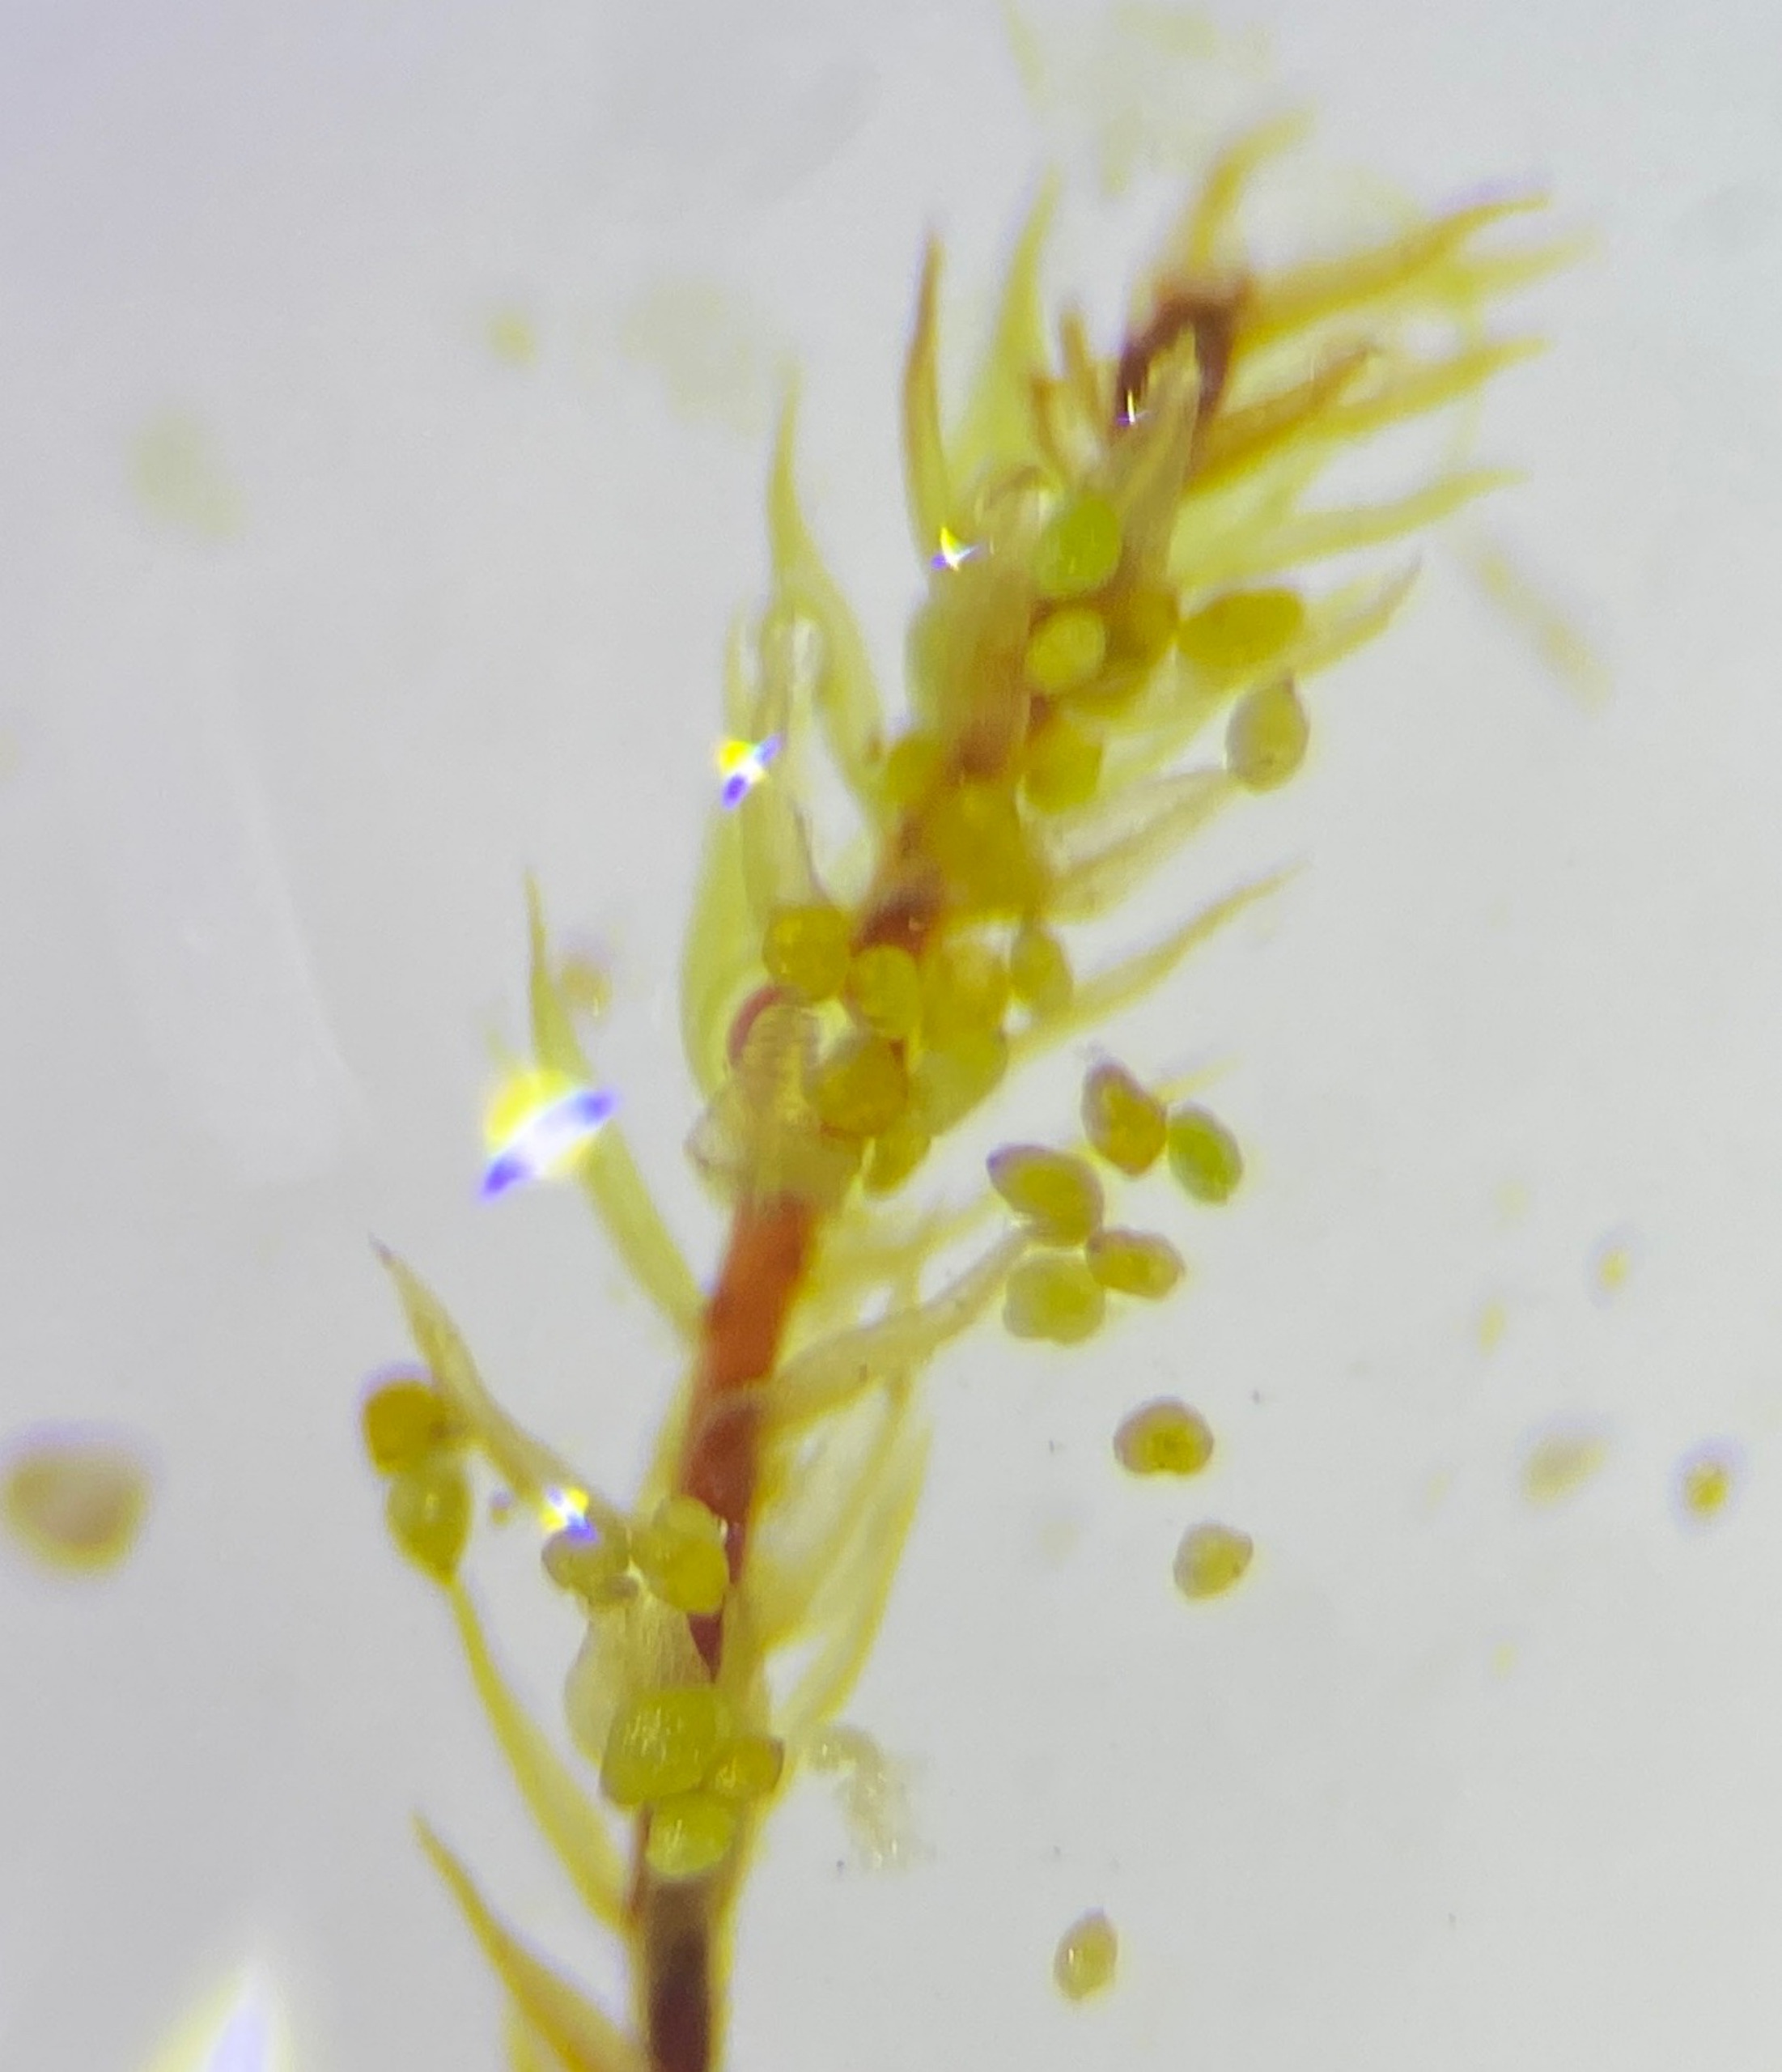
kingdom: Plantae
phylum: Bryophyta
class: Bryopsida
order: Bryales
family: Mniaceae
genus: Pohlia
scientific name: Pohlia bulbifera
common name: Gulkuglet nikkemos
